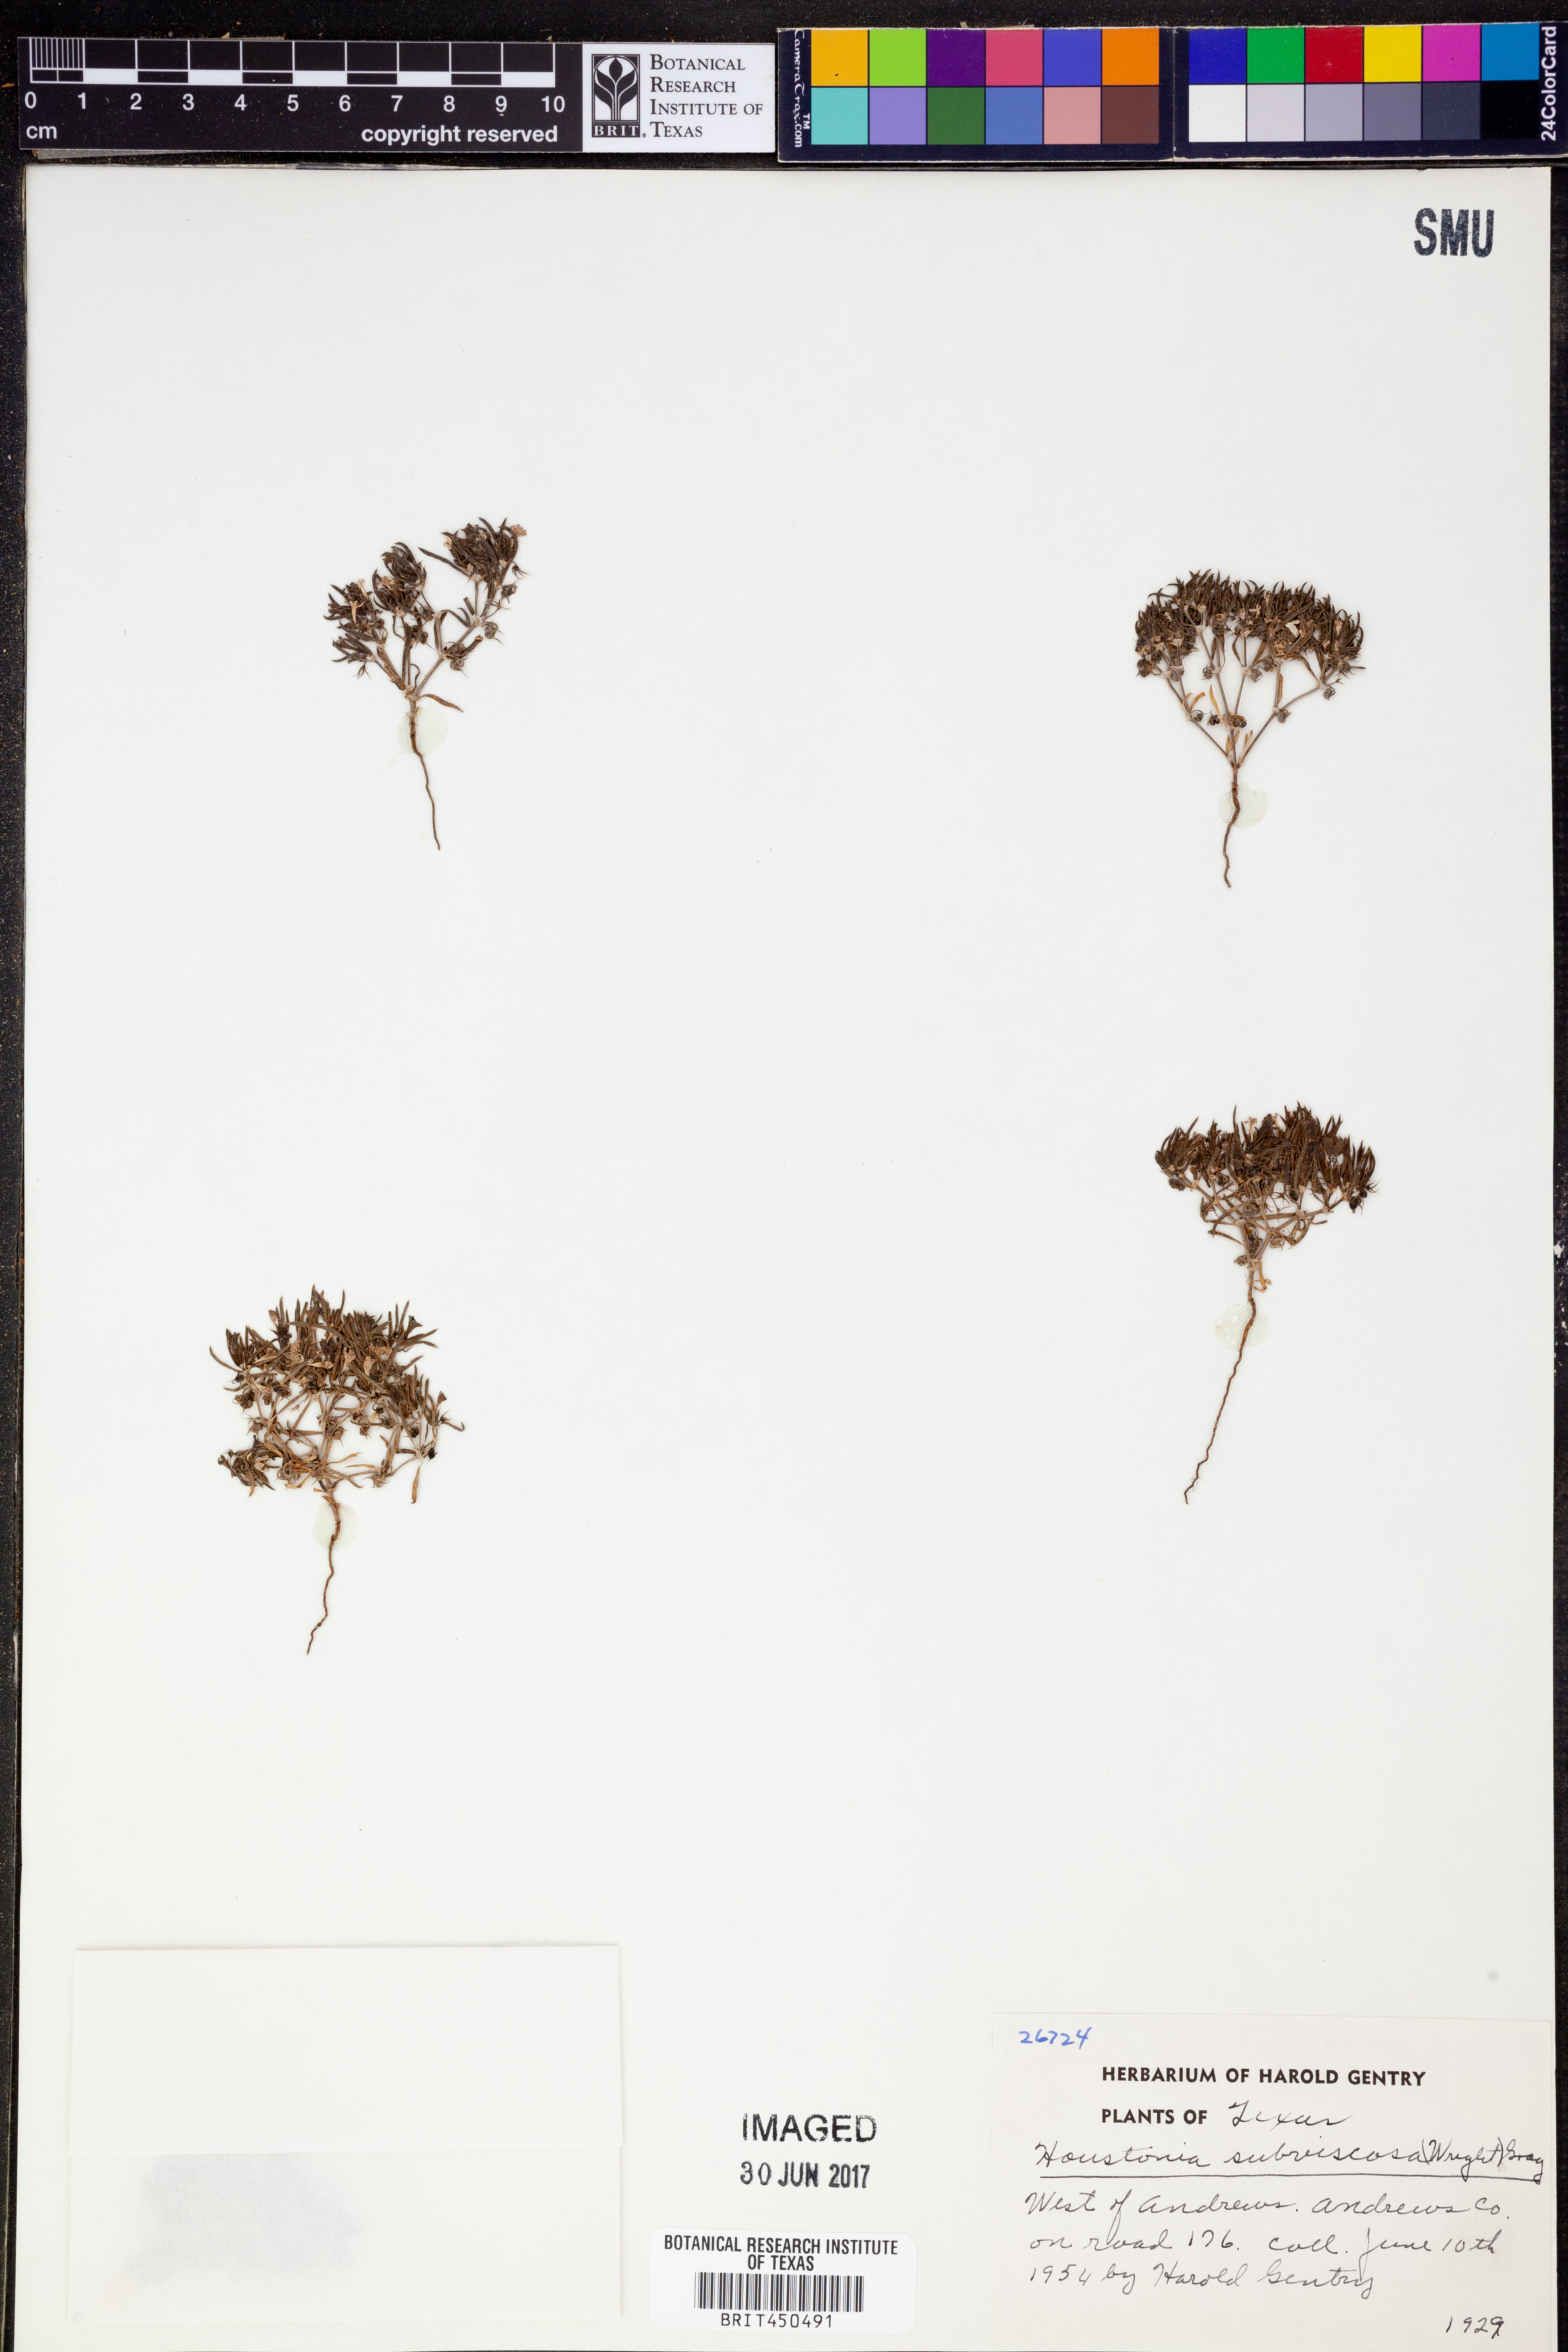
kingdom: Plantae
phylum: Tracheophyta
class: Magnoliopsida
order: Gentianales
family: Rubiaceae
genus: Houstonia
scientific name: Houstonia subviscosa
